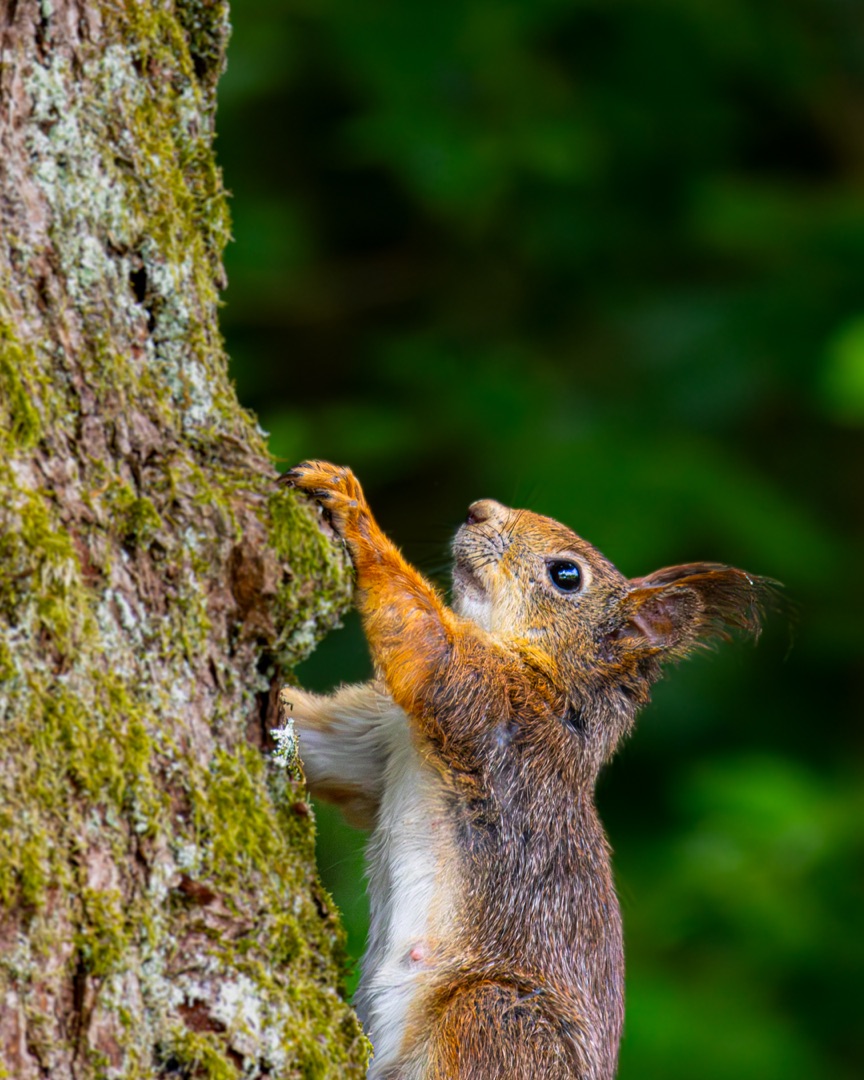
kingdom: Animalia
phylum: Chordata
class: Mammalia
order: Rodentia
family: Sciuridae
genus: Sciurus
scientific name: Sciurus vulgaris
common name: Egern
